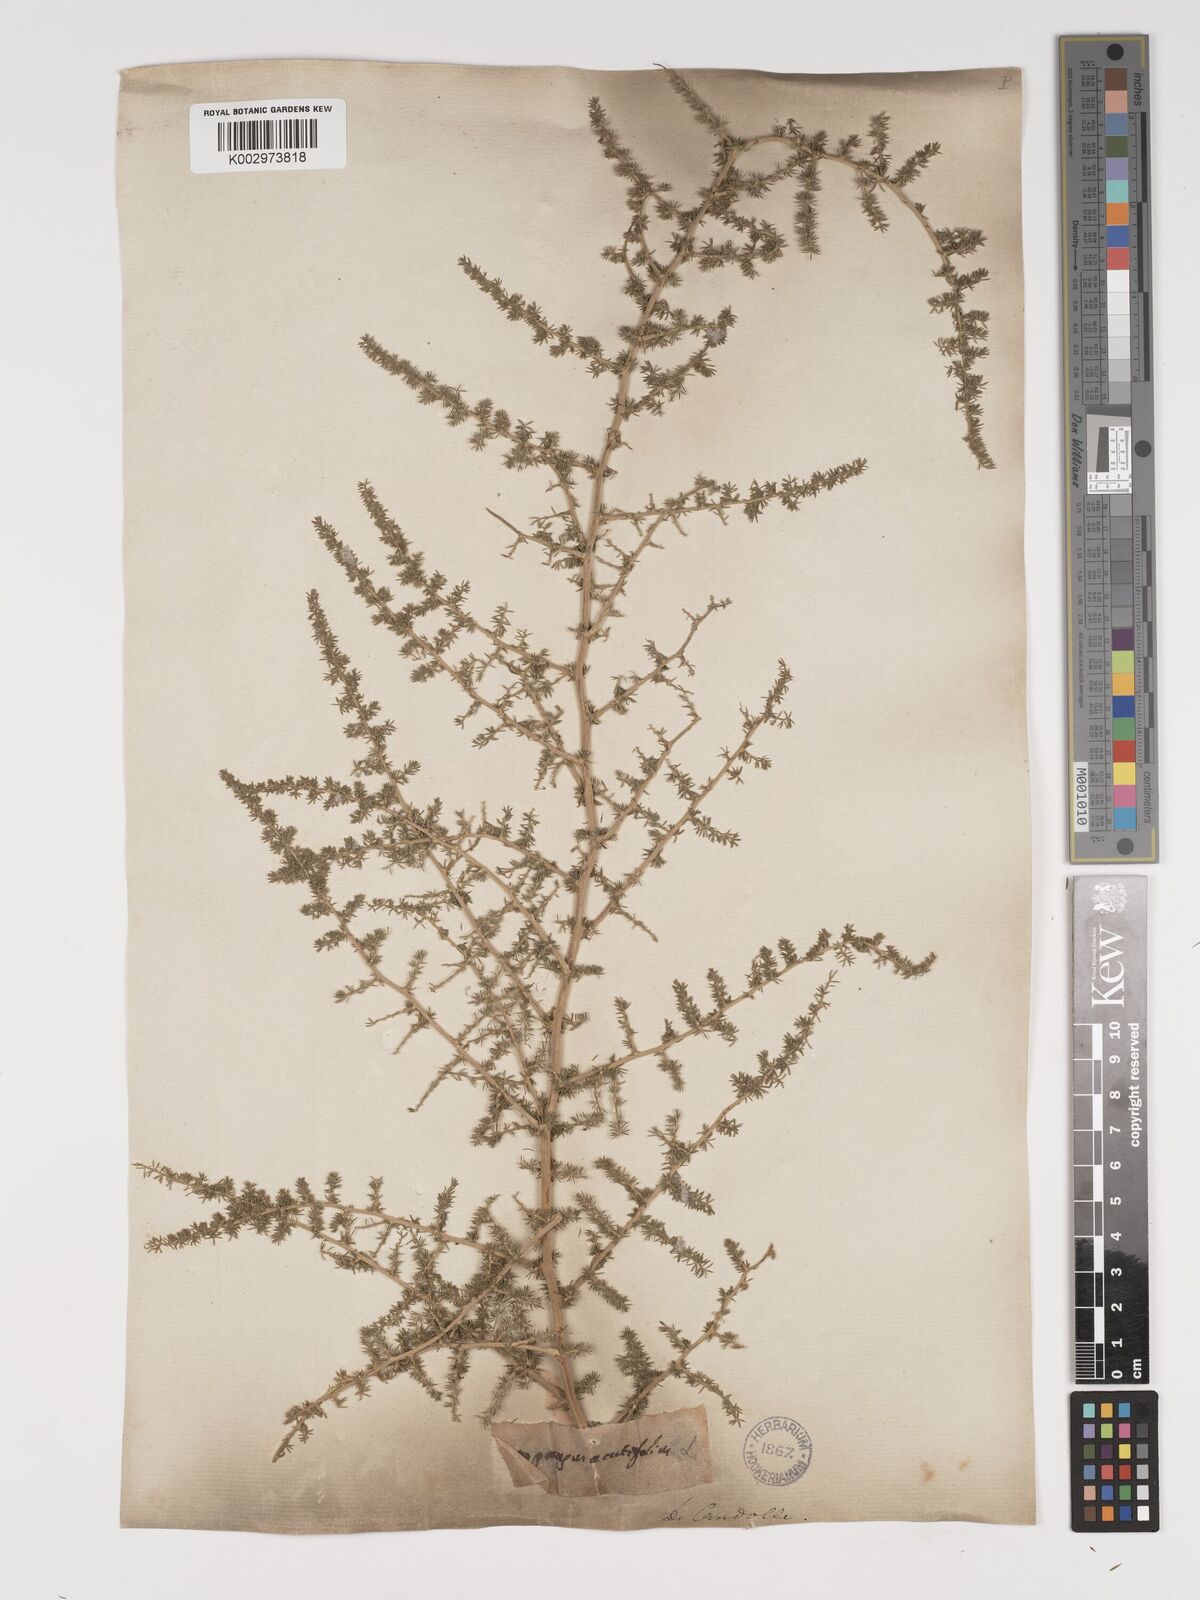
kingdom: Plantae
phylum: Tracheophyta
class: Liliopsida
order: Asparagales
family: Asparagaceae
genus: Asparagus
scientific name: Asparagus aethiopicus
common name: Sprenger's asparagus fern
